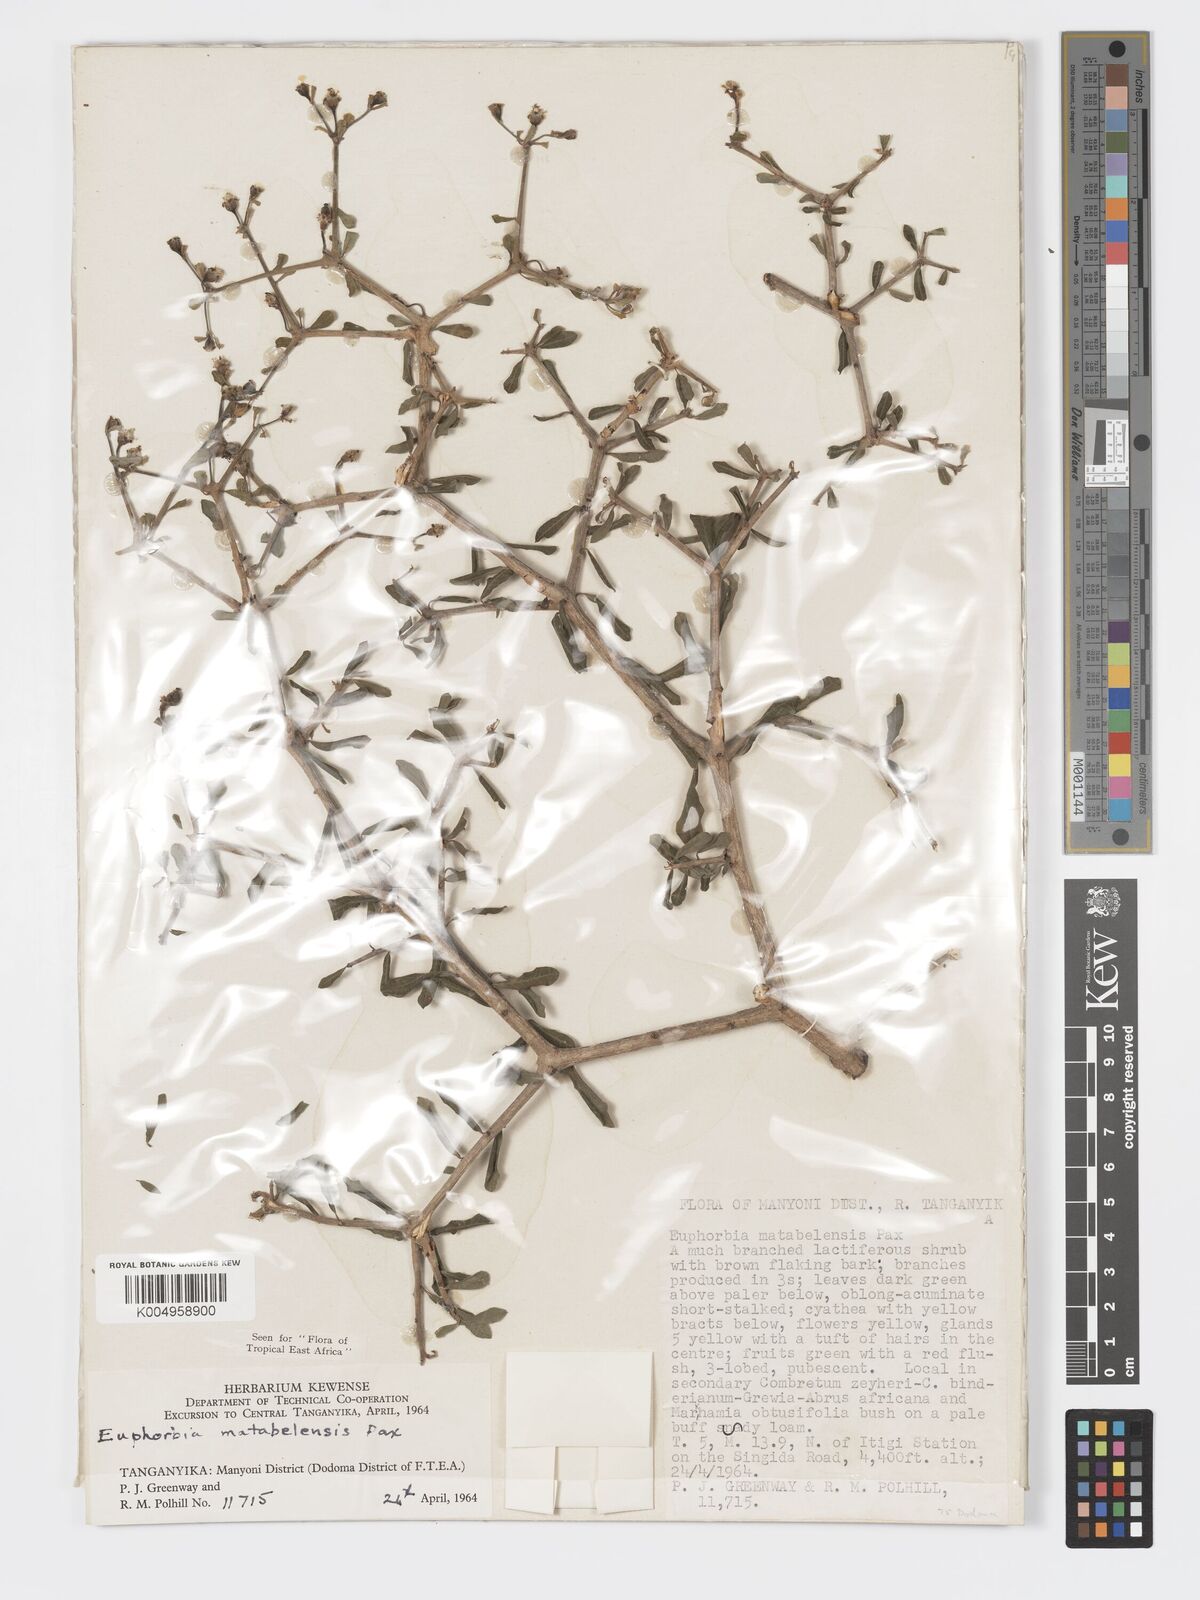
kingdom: Plantae
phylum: Tracheophyta
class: Magnoliopsida
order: Malpighiales
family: Euphorbiaceae
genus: Euphorbia
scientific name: Euphorbia matabelensis
